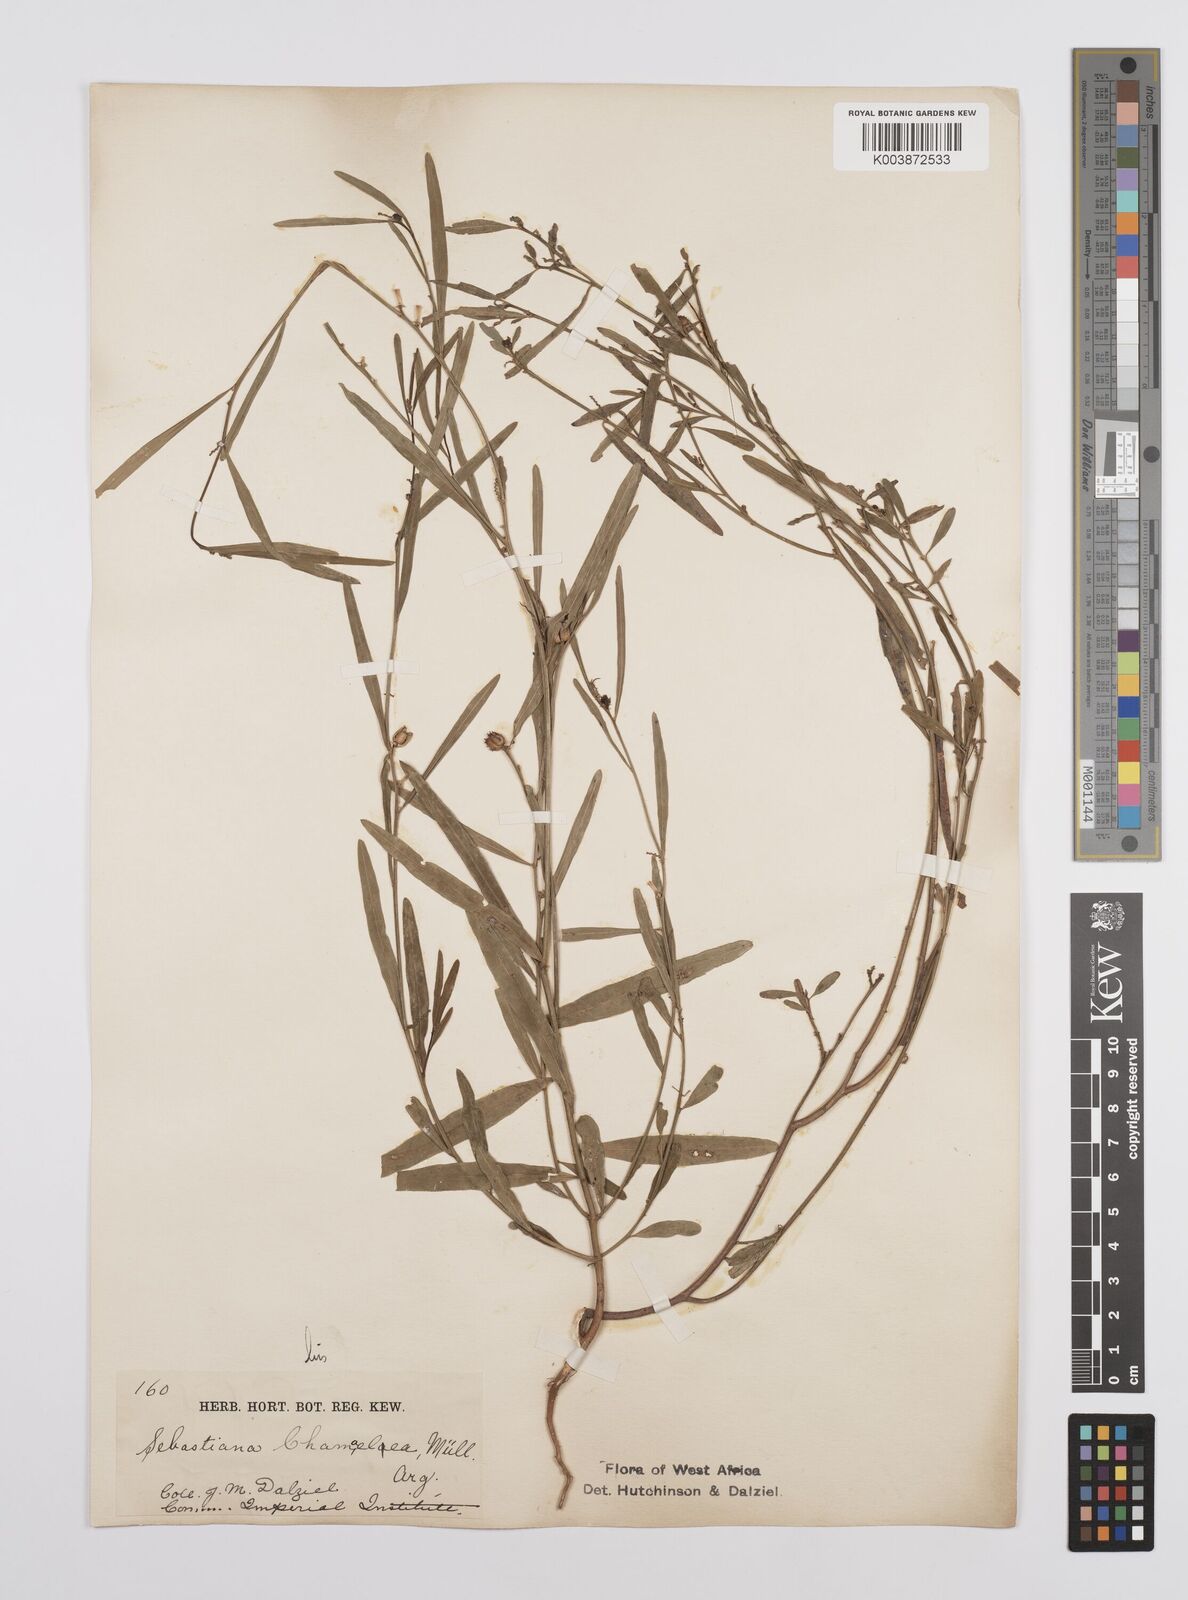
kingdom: Plantae
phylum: Tracheophyta
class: Magnoliopsida
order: Malpighiales
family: Euphorbiaceae
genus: Microstachys
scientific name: Microstachys chamaelea
